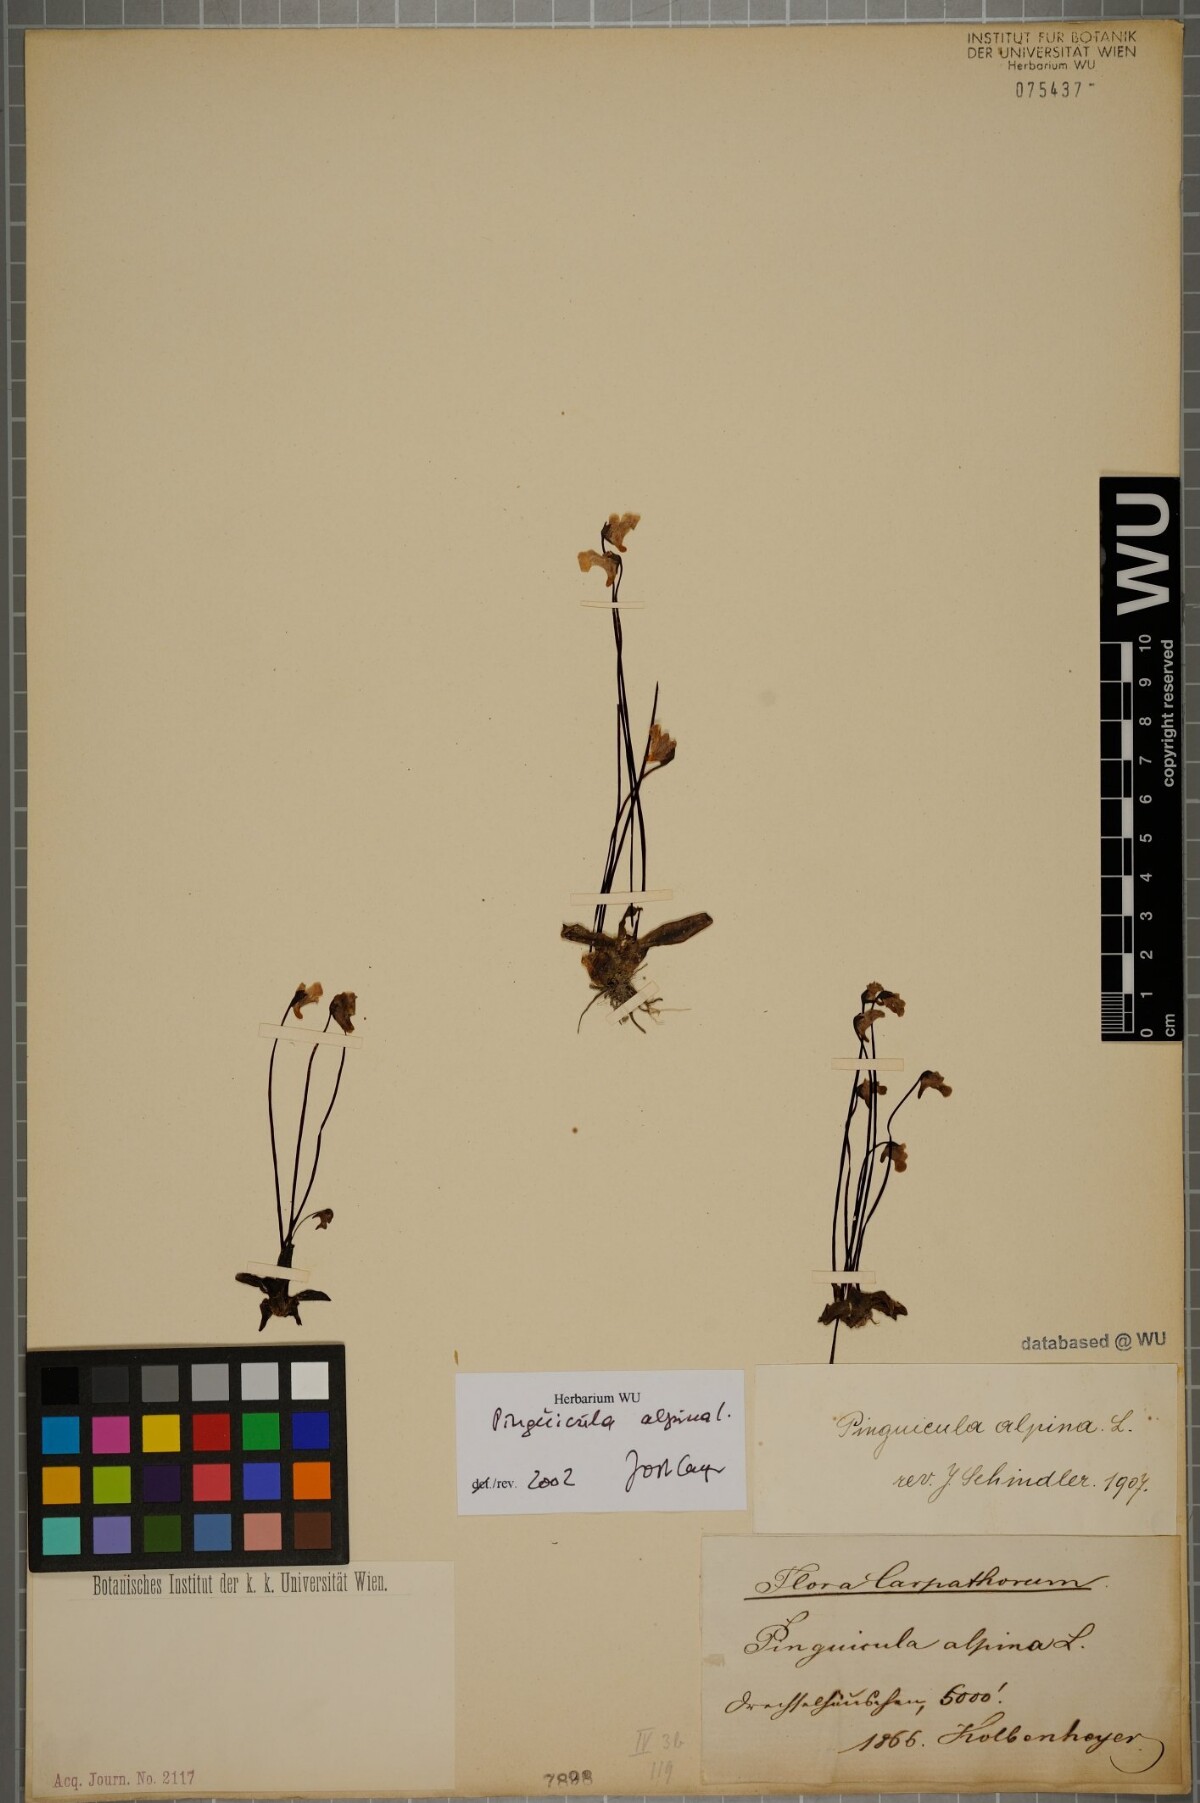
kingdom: Plantae
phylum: Tracheophyta
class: Magnoliopsida
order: Lamiales
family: Lentibulariaceae
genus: Pinguicula
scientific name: Pinguicula alpina
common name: Alpine butterwort
